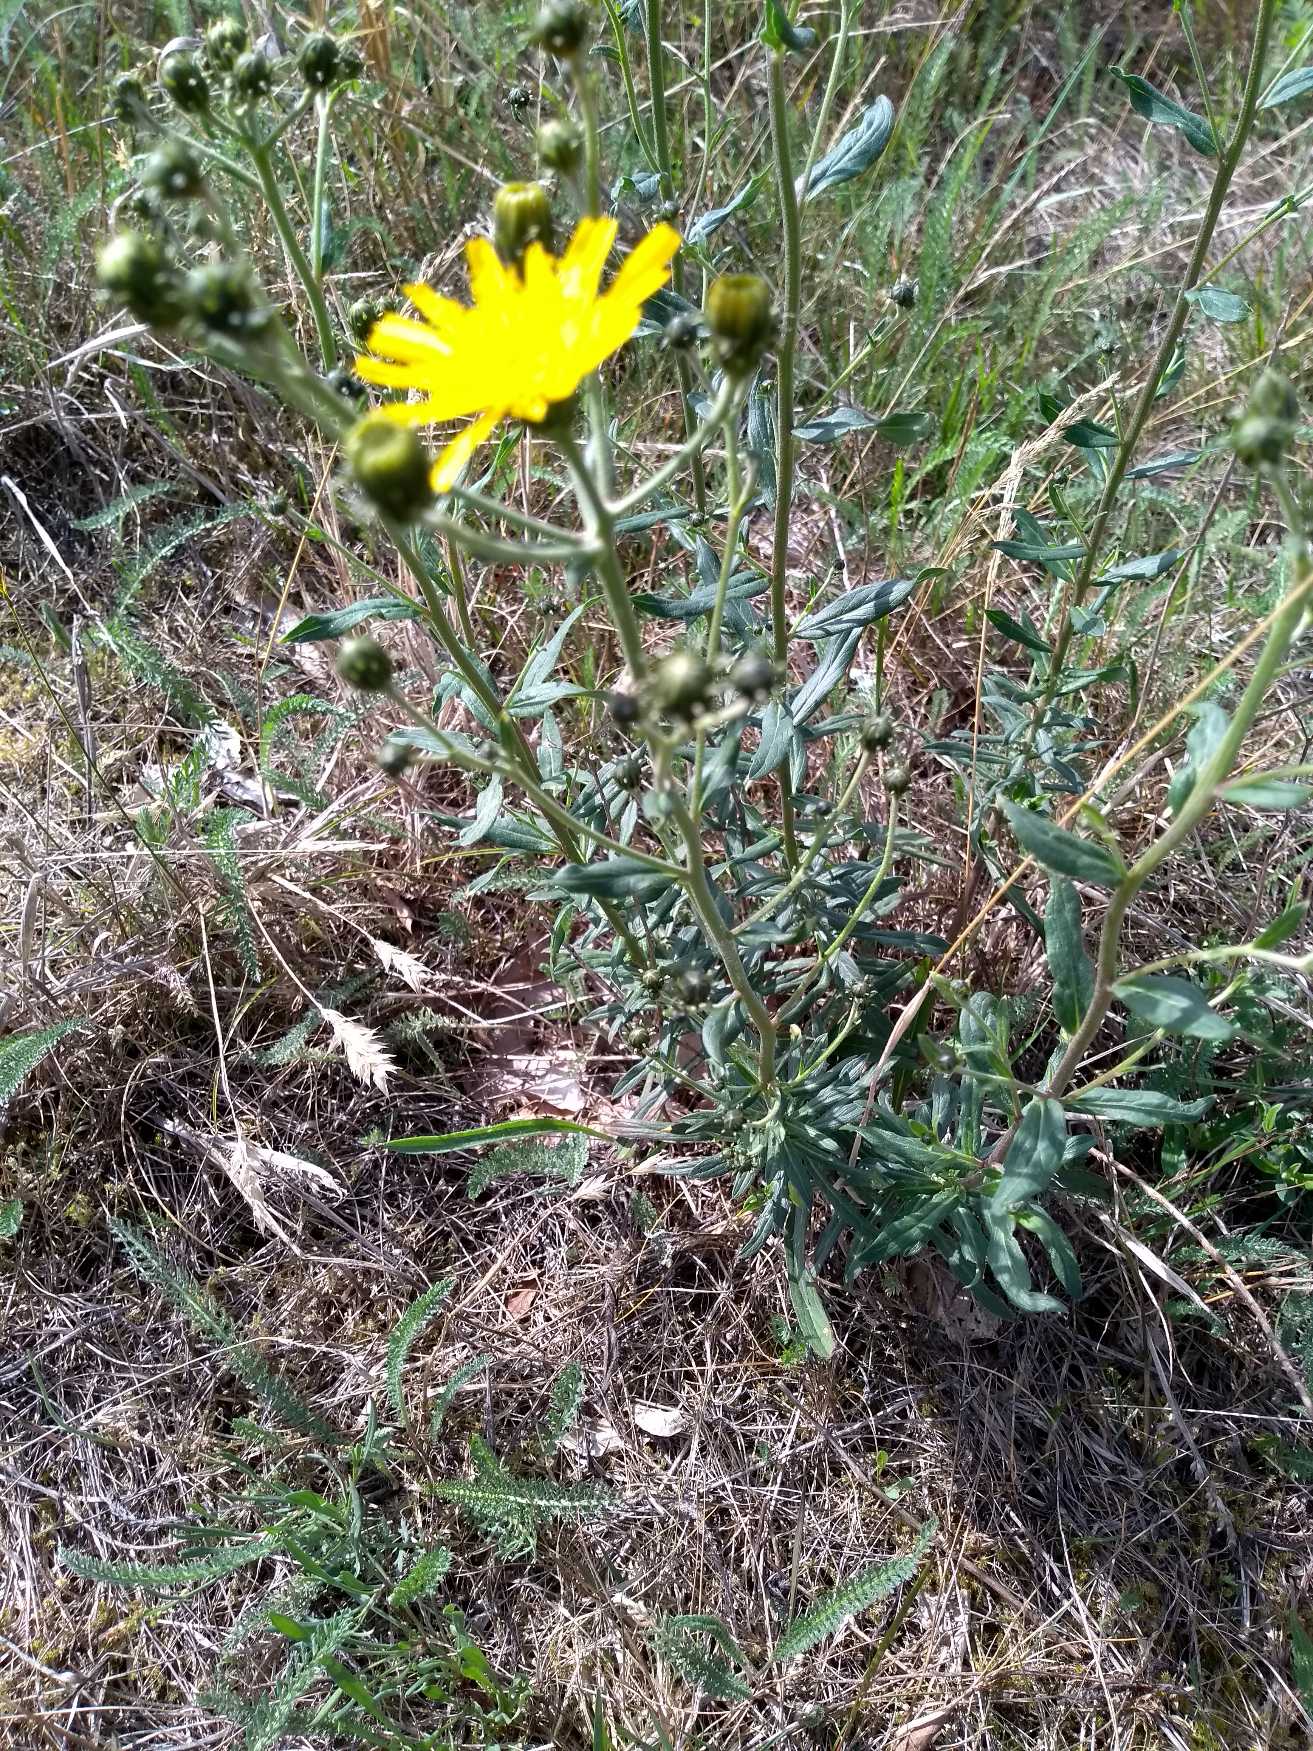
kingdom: Plantae
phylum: Tracheophyta
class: Magnoliopsida
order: Asterales
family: Asteraceae
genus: Hieracium
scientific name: Hieracium umbellatum
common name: Smalbladet høgeurt
